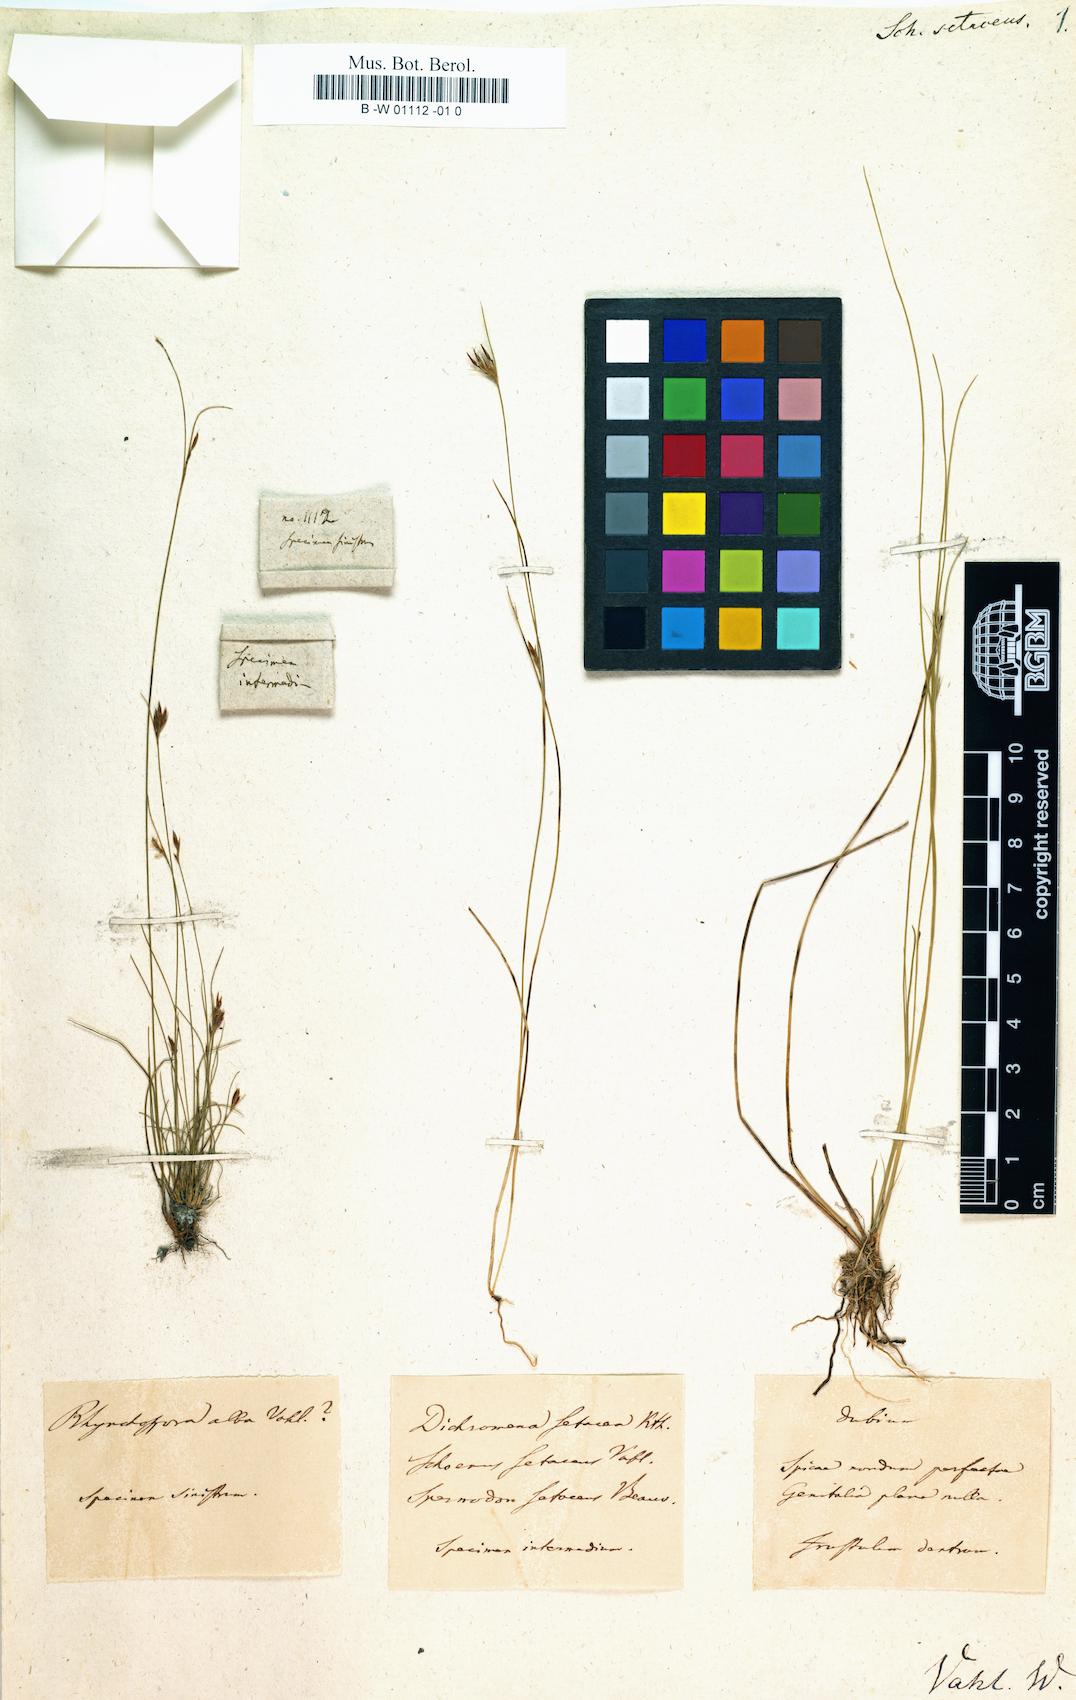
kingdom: Plantae
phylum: Tracheophyta
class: Liliopsida
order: Poales
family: Cyperaceae
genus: Rhynchospora
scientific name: Rhynchospora tenerrima
